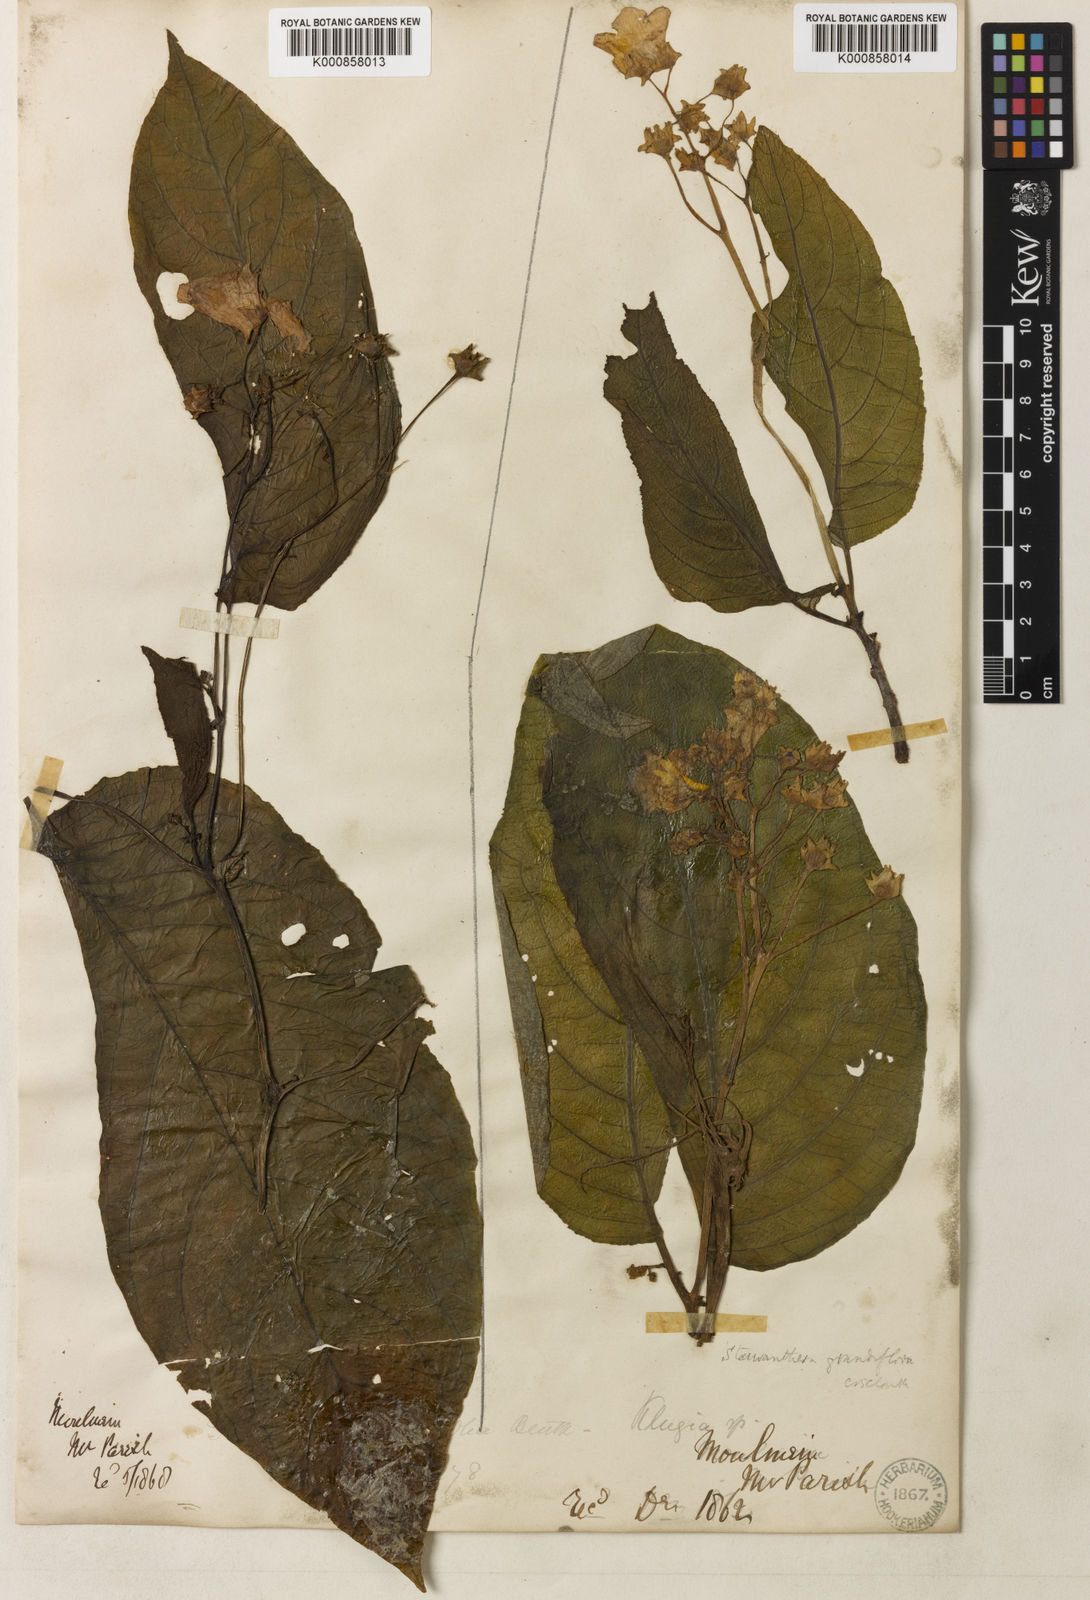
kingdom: Plantae
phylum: Tracheophyta
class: Magnoliopsida
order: Lamiales
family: Gesneriaceae
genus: Stauranthera
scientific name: Stauranthera
